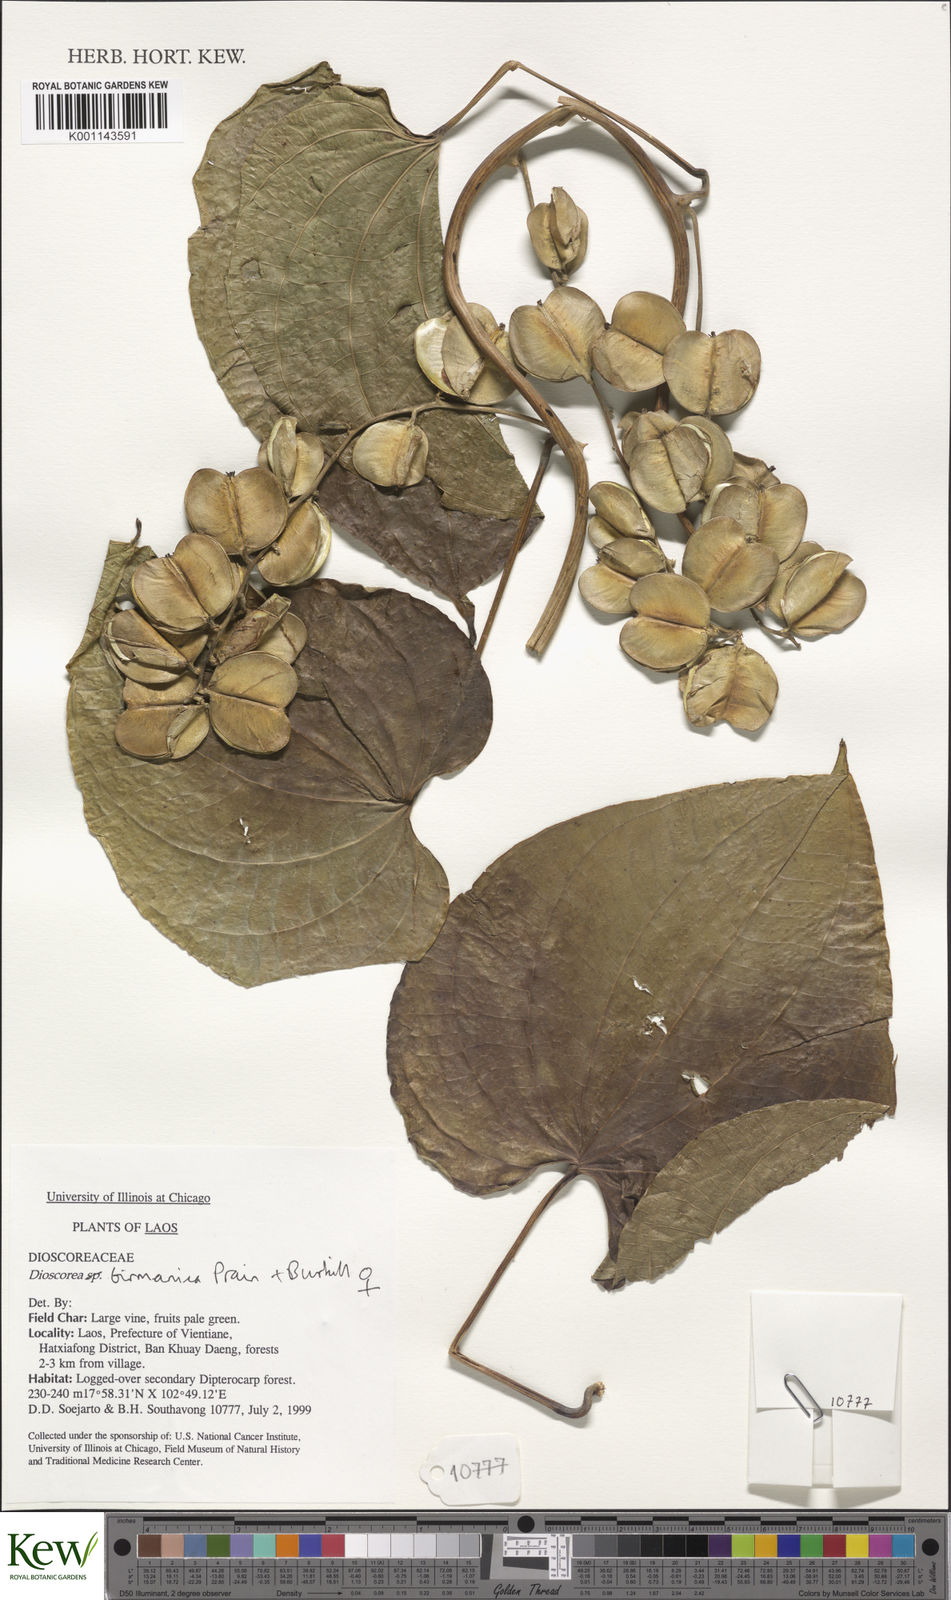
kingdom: Plantae
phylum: Tracheophyta
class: Liliopsida
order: Dioscoreales
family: Dioscoreaceae
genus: Dioscorea
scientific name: Dioscorea birmanica
